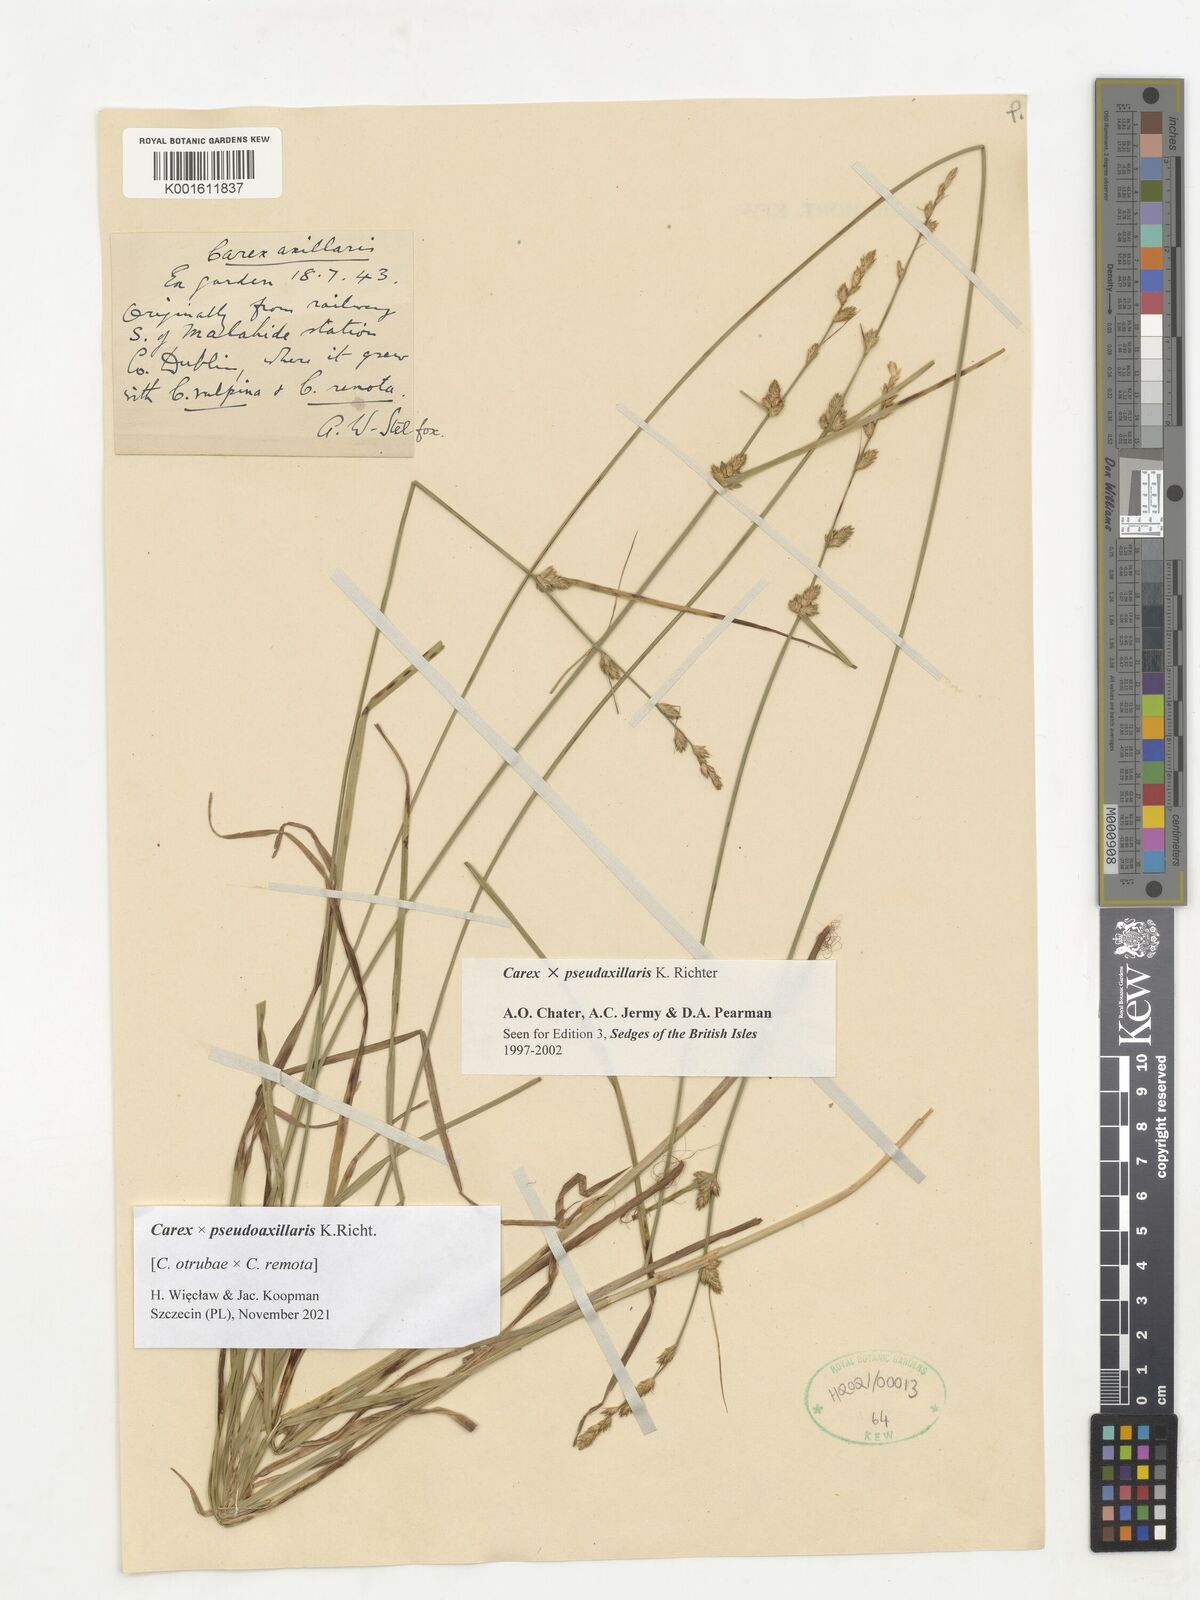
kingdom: Plantae
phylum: Tracheophyta
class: Liliopsida
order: Poales
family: Cyperaceae
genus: Carex
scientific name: Carex pseudoaxillaris
